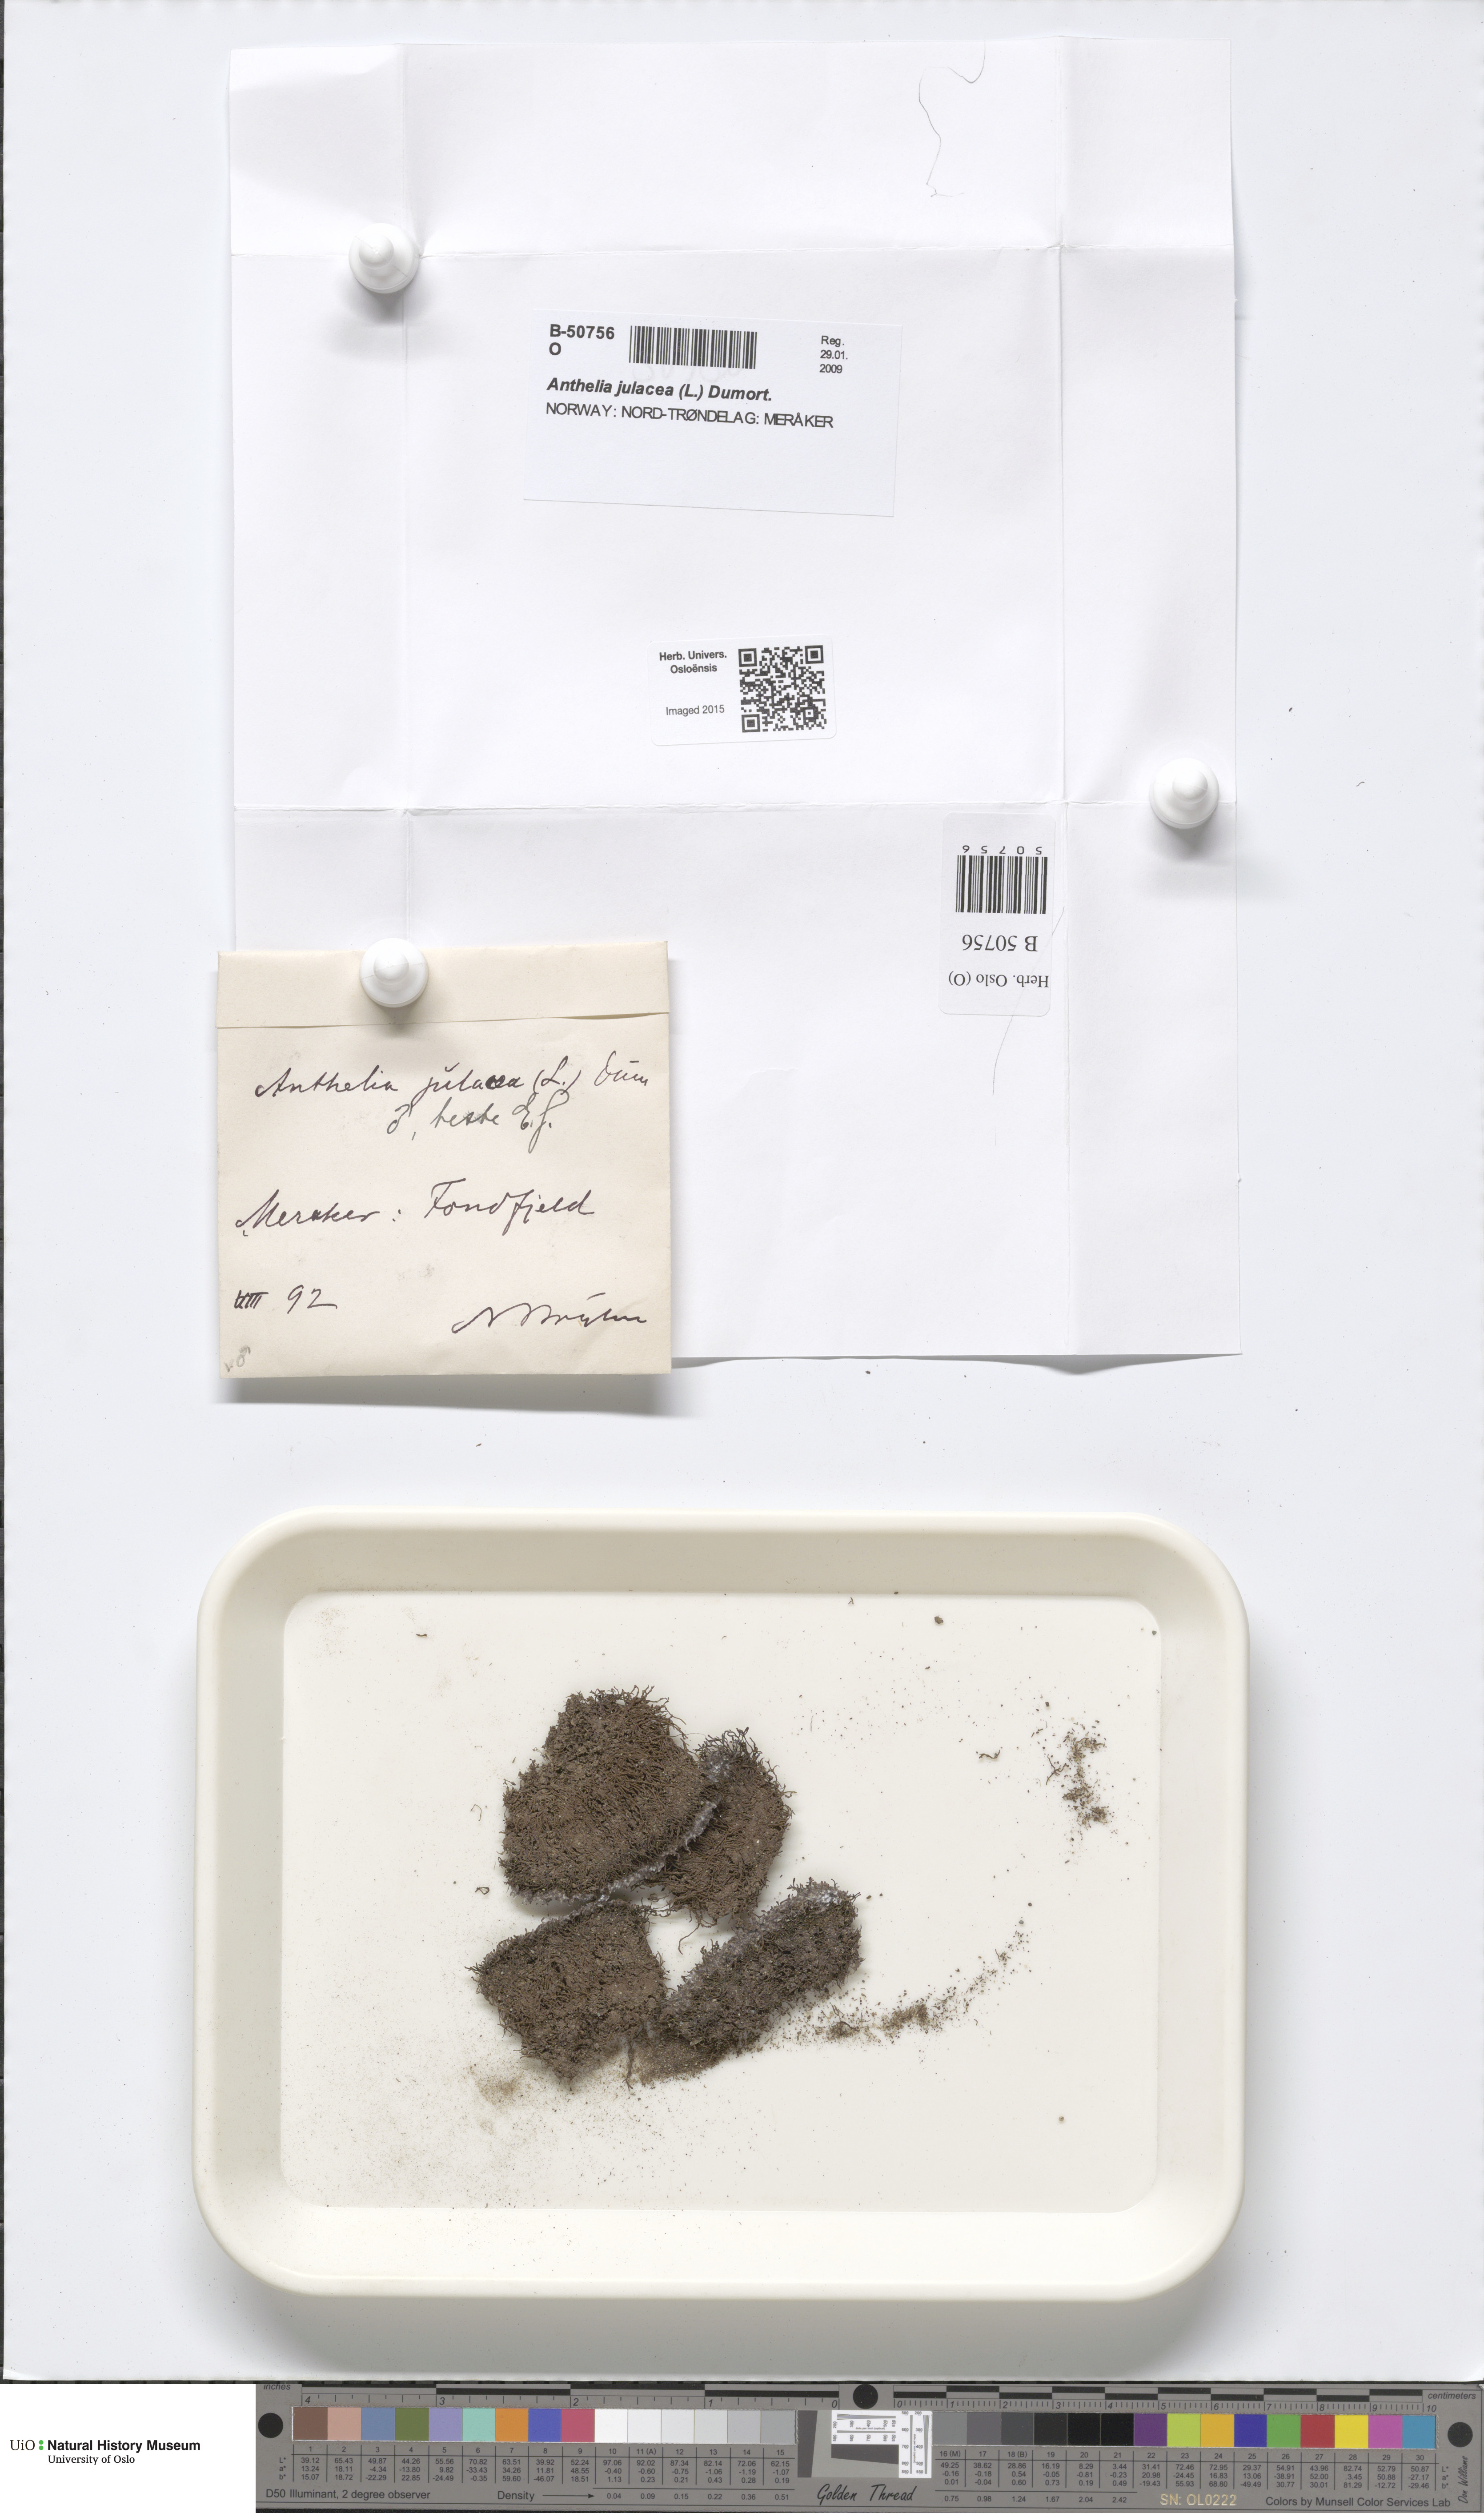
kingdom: Plantae
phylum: Marchantiophyta
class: Jungermanniopsida
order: Jungermanniales
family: Antheliaceae
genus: Anthelia
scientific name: Anthelia julacea
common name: Alpine silverwort
